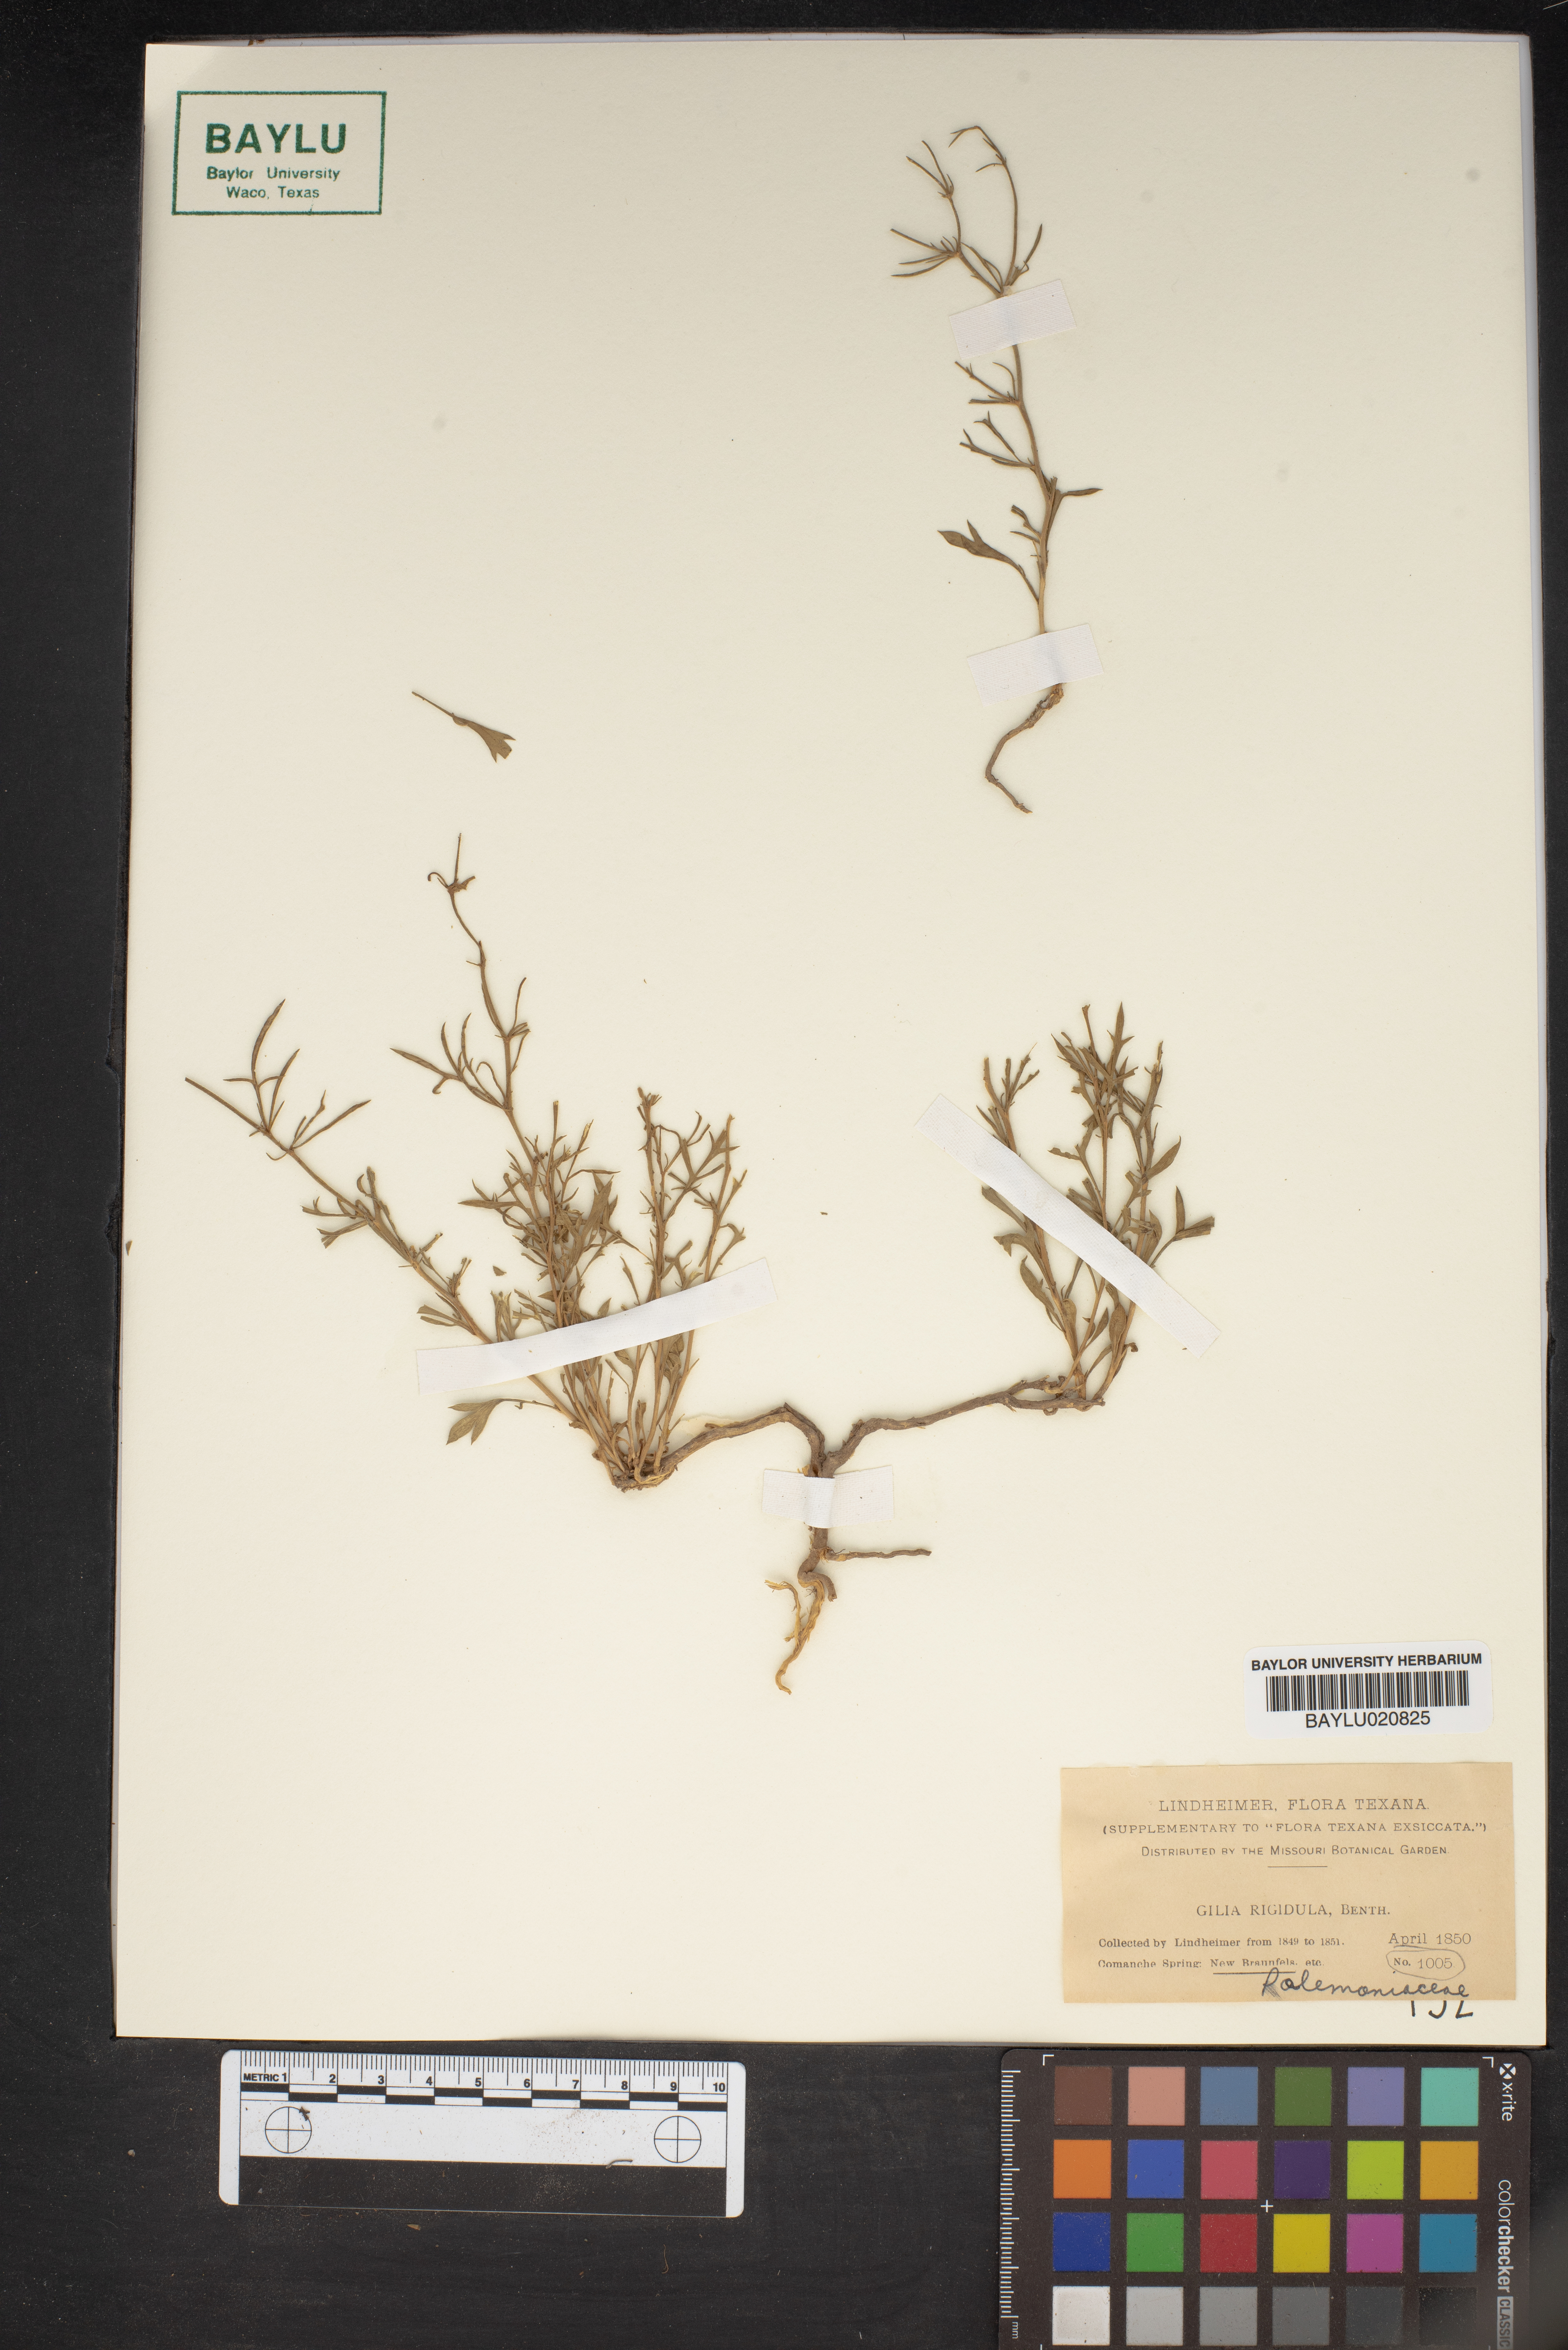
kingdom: Plantae
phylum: Tracheophyta
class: Magnoliopsida
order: Ericales
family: Polemoniaceae
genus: Giliastrum
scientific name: Giliastrum rigidulum
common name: Bluebowls
